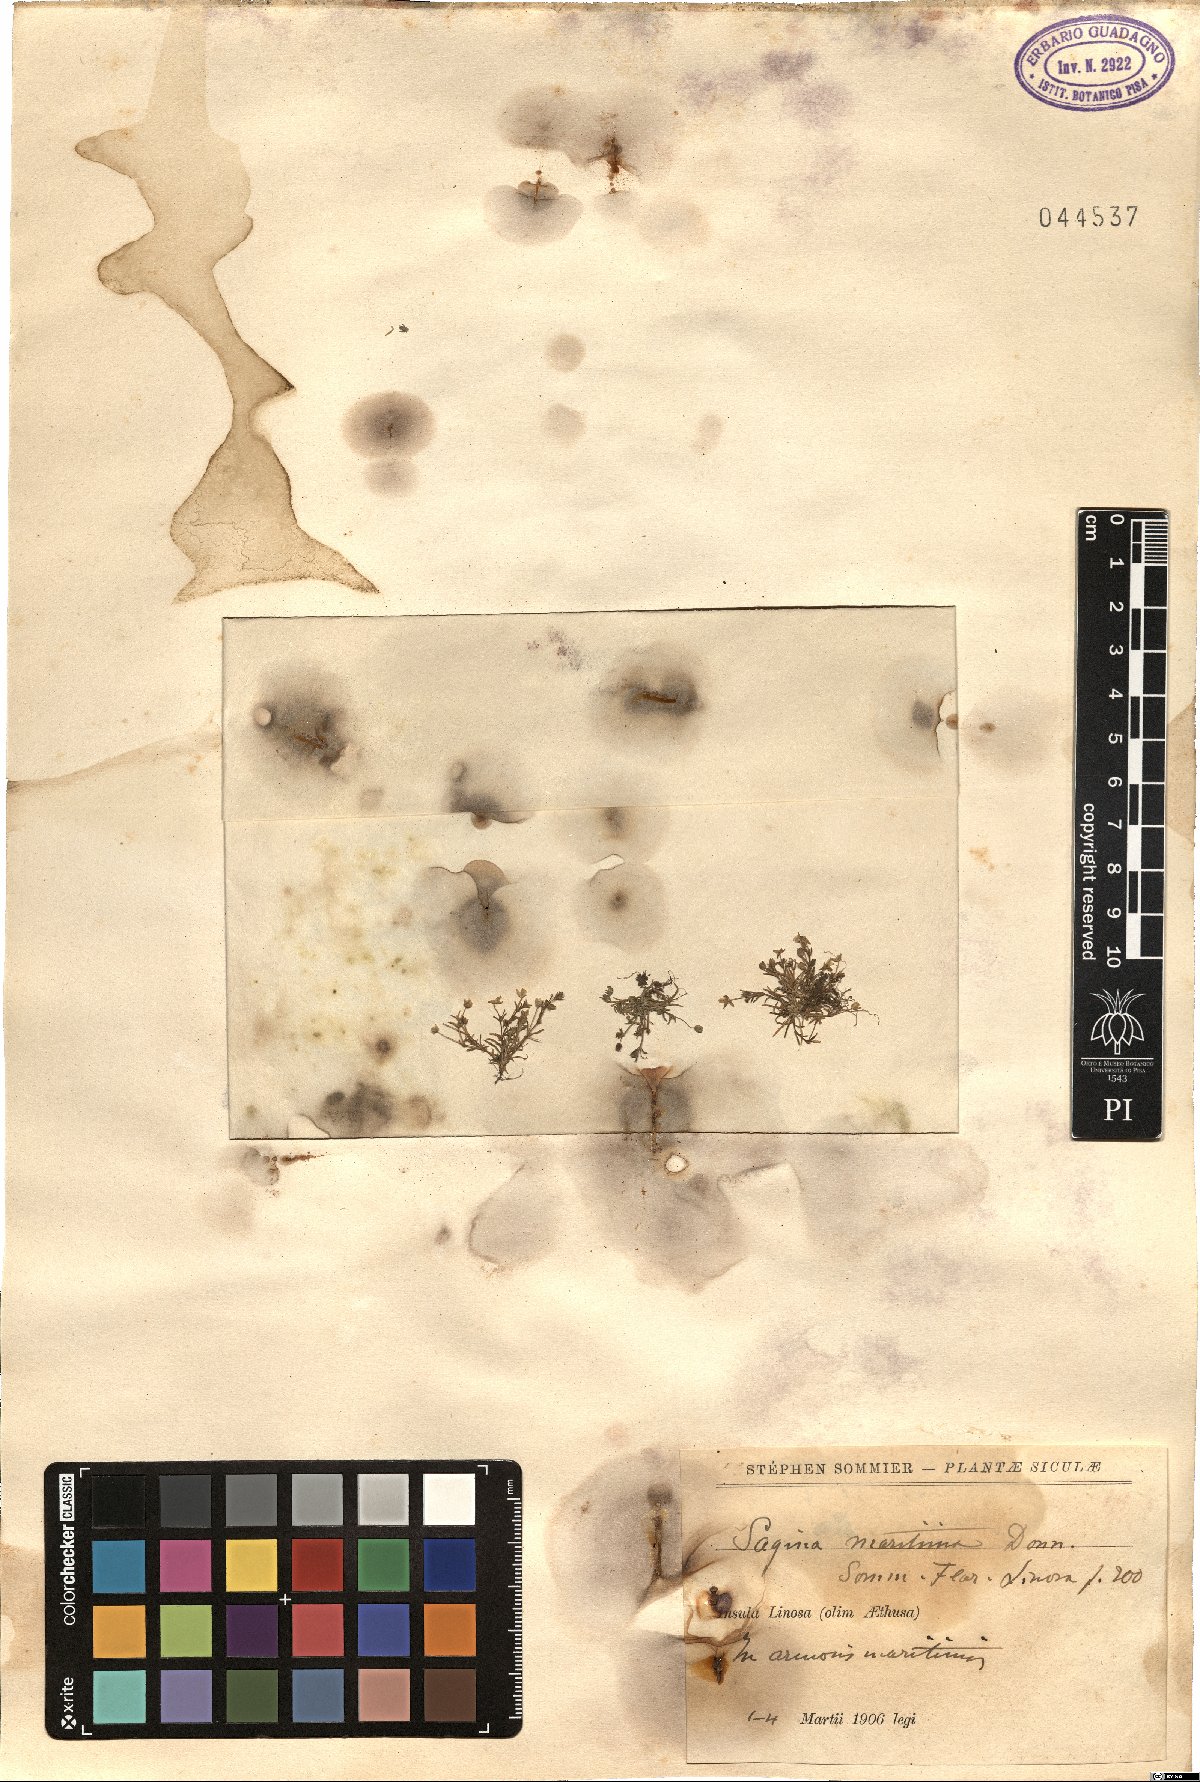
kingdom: Plantae
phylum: Tracheophyta
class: Magnoliopsida
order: Caryophyllales
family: Caryophyllaceae
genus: Sagina
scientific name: Sagina maritima
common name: Sea pearlwort
